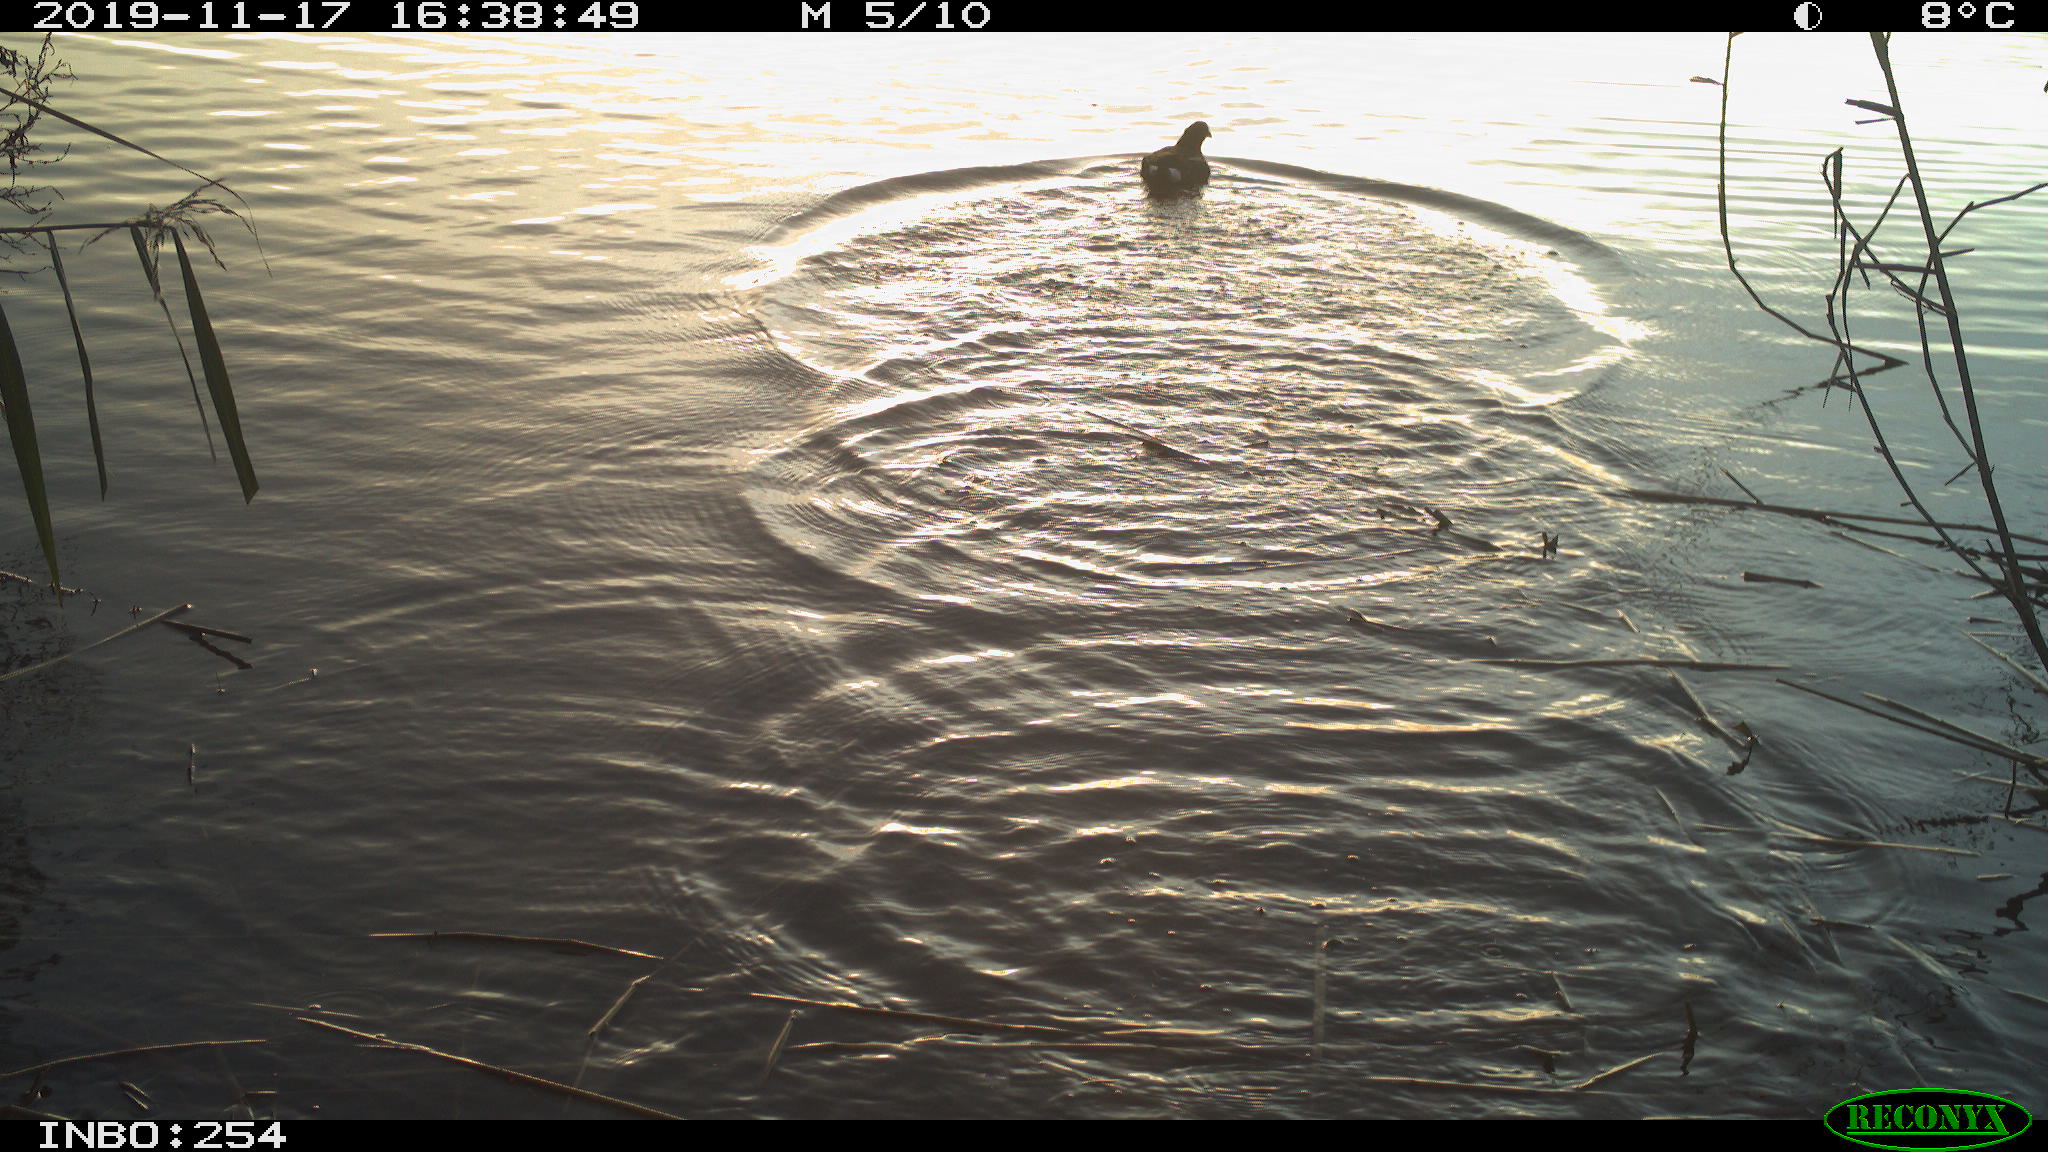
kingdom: Animalia
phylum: Chordata
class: Aves
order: Gruiformes
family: Rallidae
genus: Gallinula
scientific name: Gallinula chloropus
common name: Common moorhen
